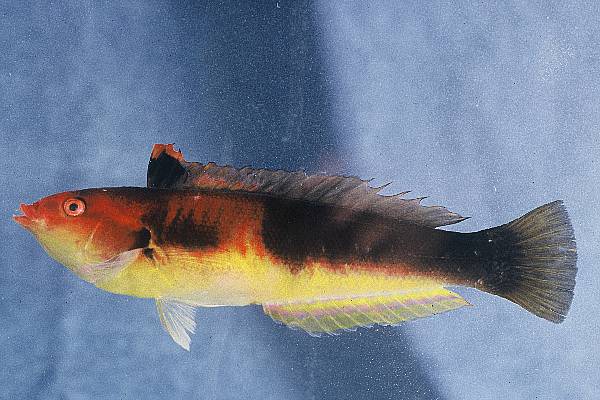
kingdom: Animalia
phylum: Chordata
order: Perciformes
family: Labridae
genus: Coris
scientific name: Coris julis
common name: Rainbow wrasse
